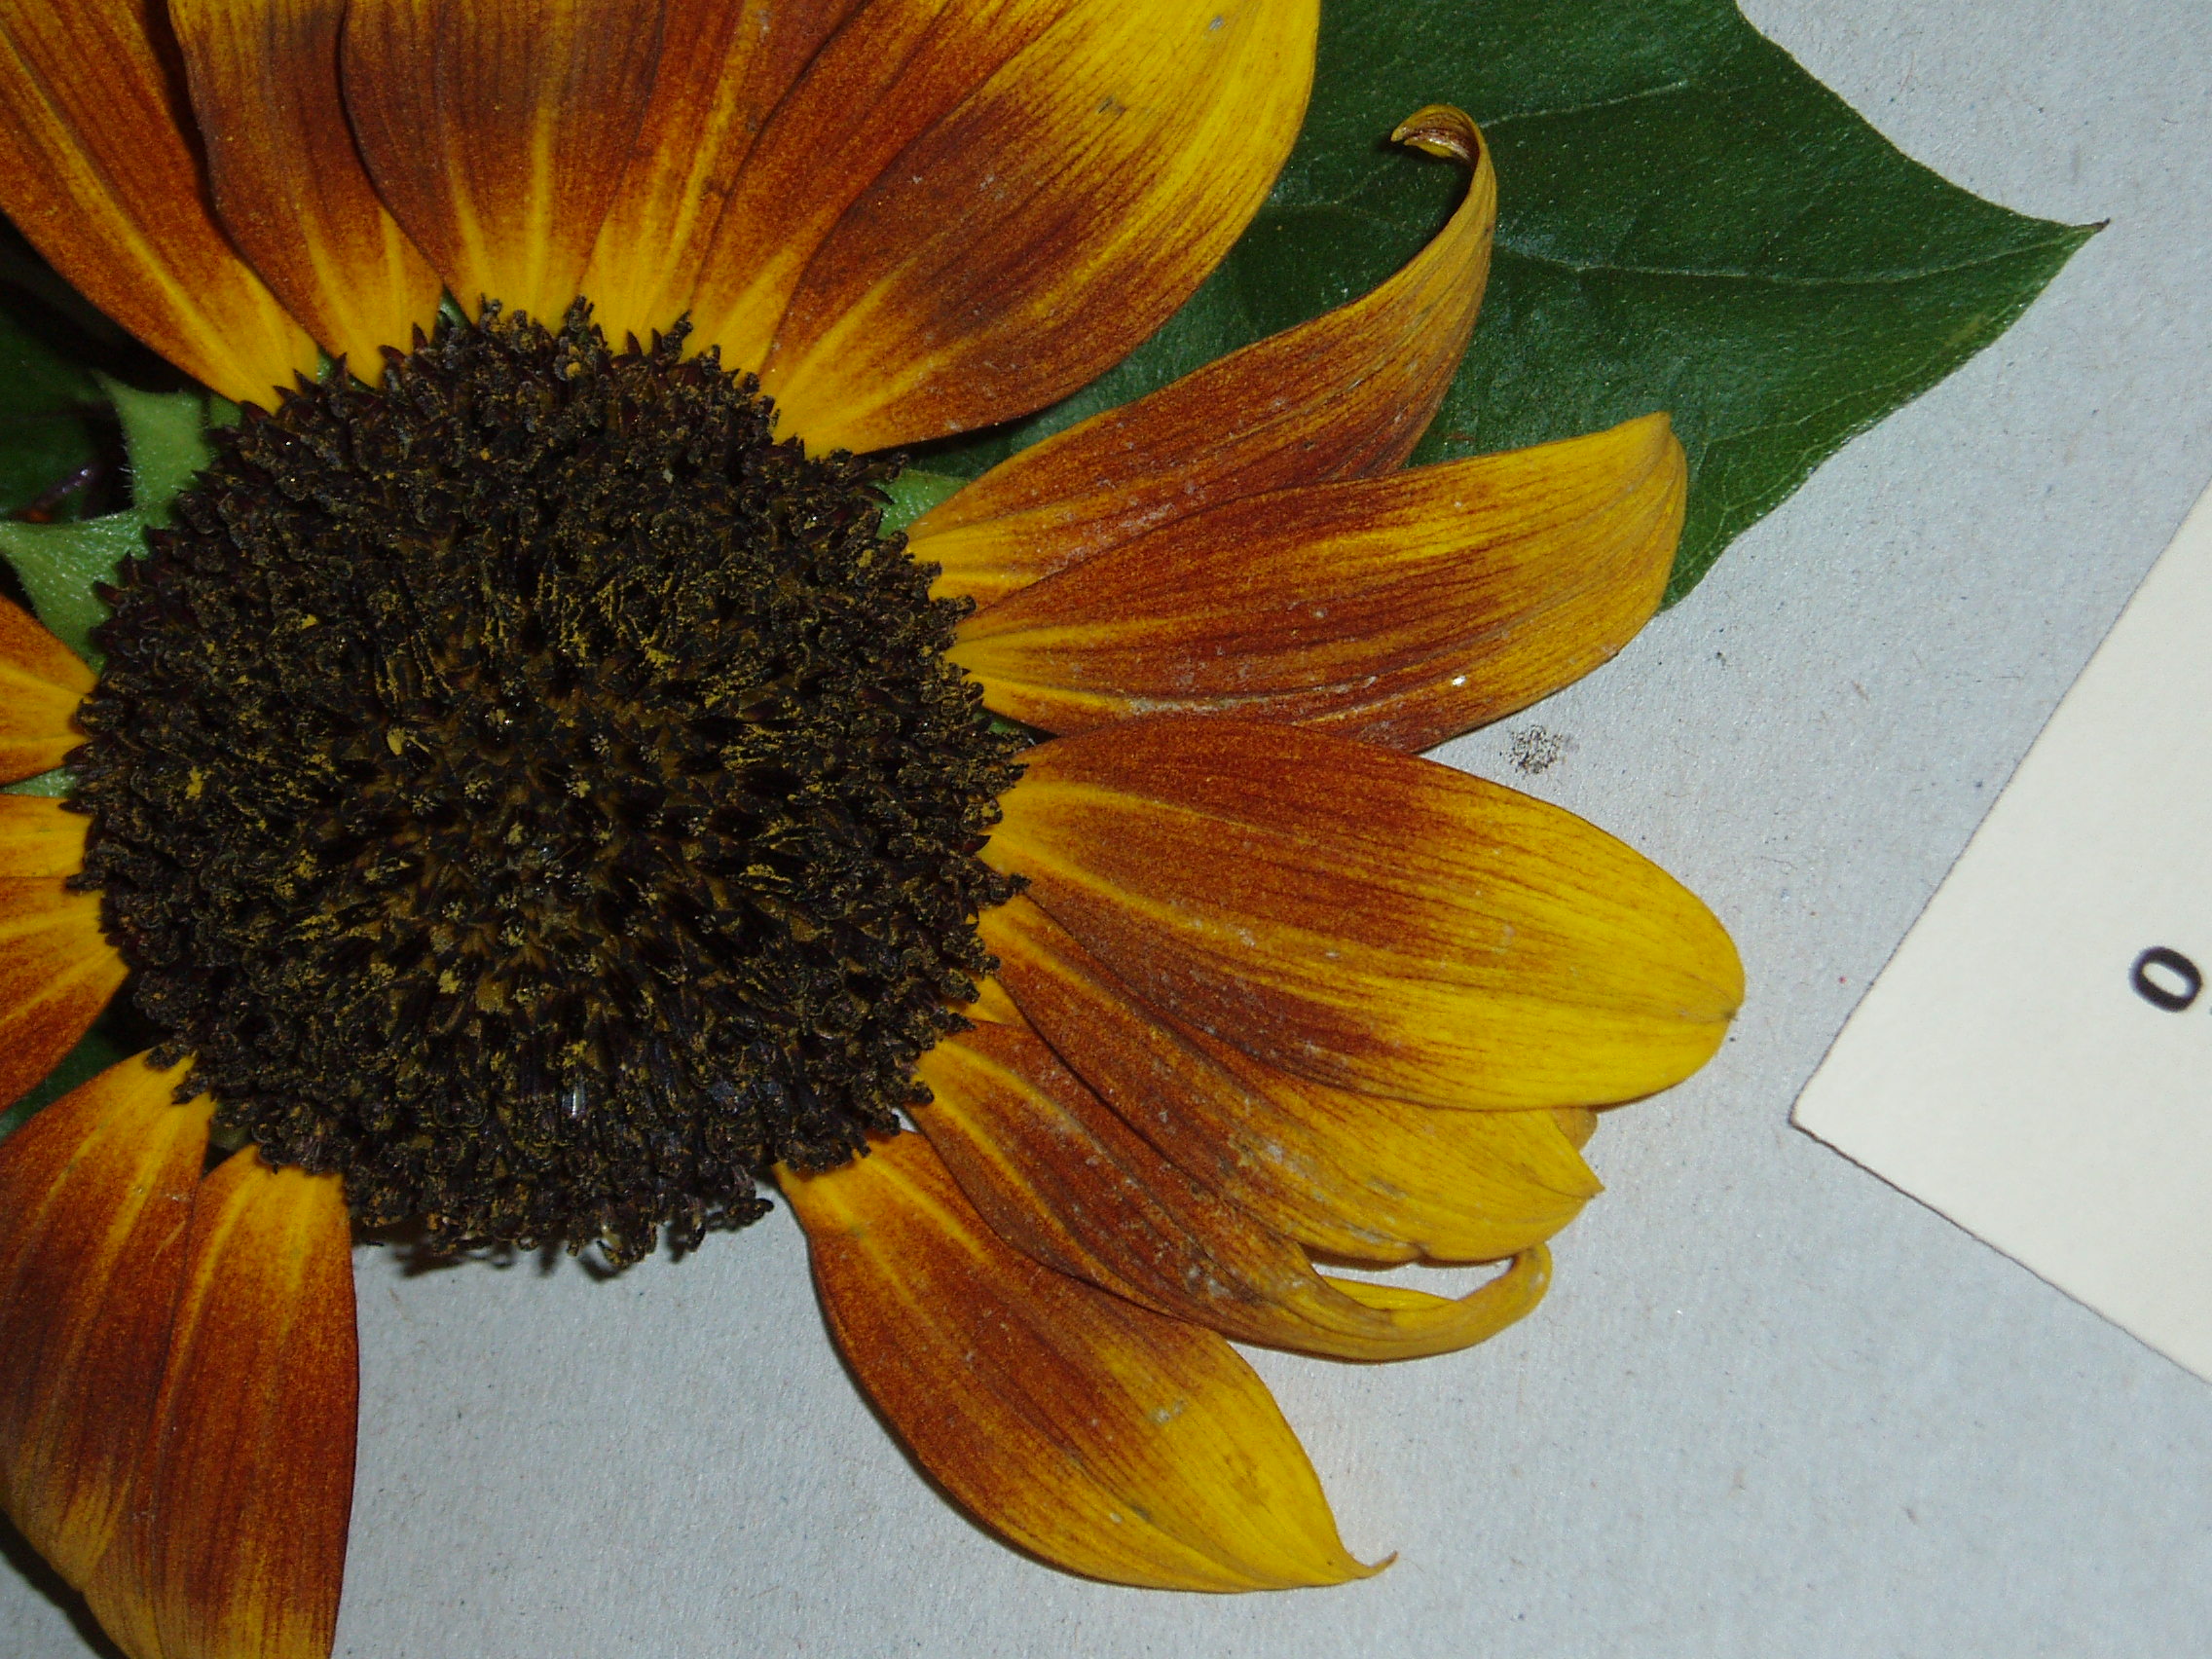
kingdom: Plantae
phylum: Tracheophyta
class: Magnoliopsida
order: Asterales
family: Asteraceae
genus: Helianthus
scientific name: Helianthus annuus
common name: Sunflower
